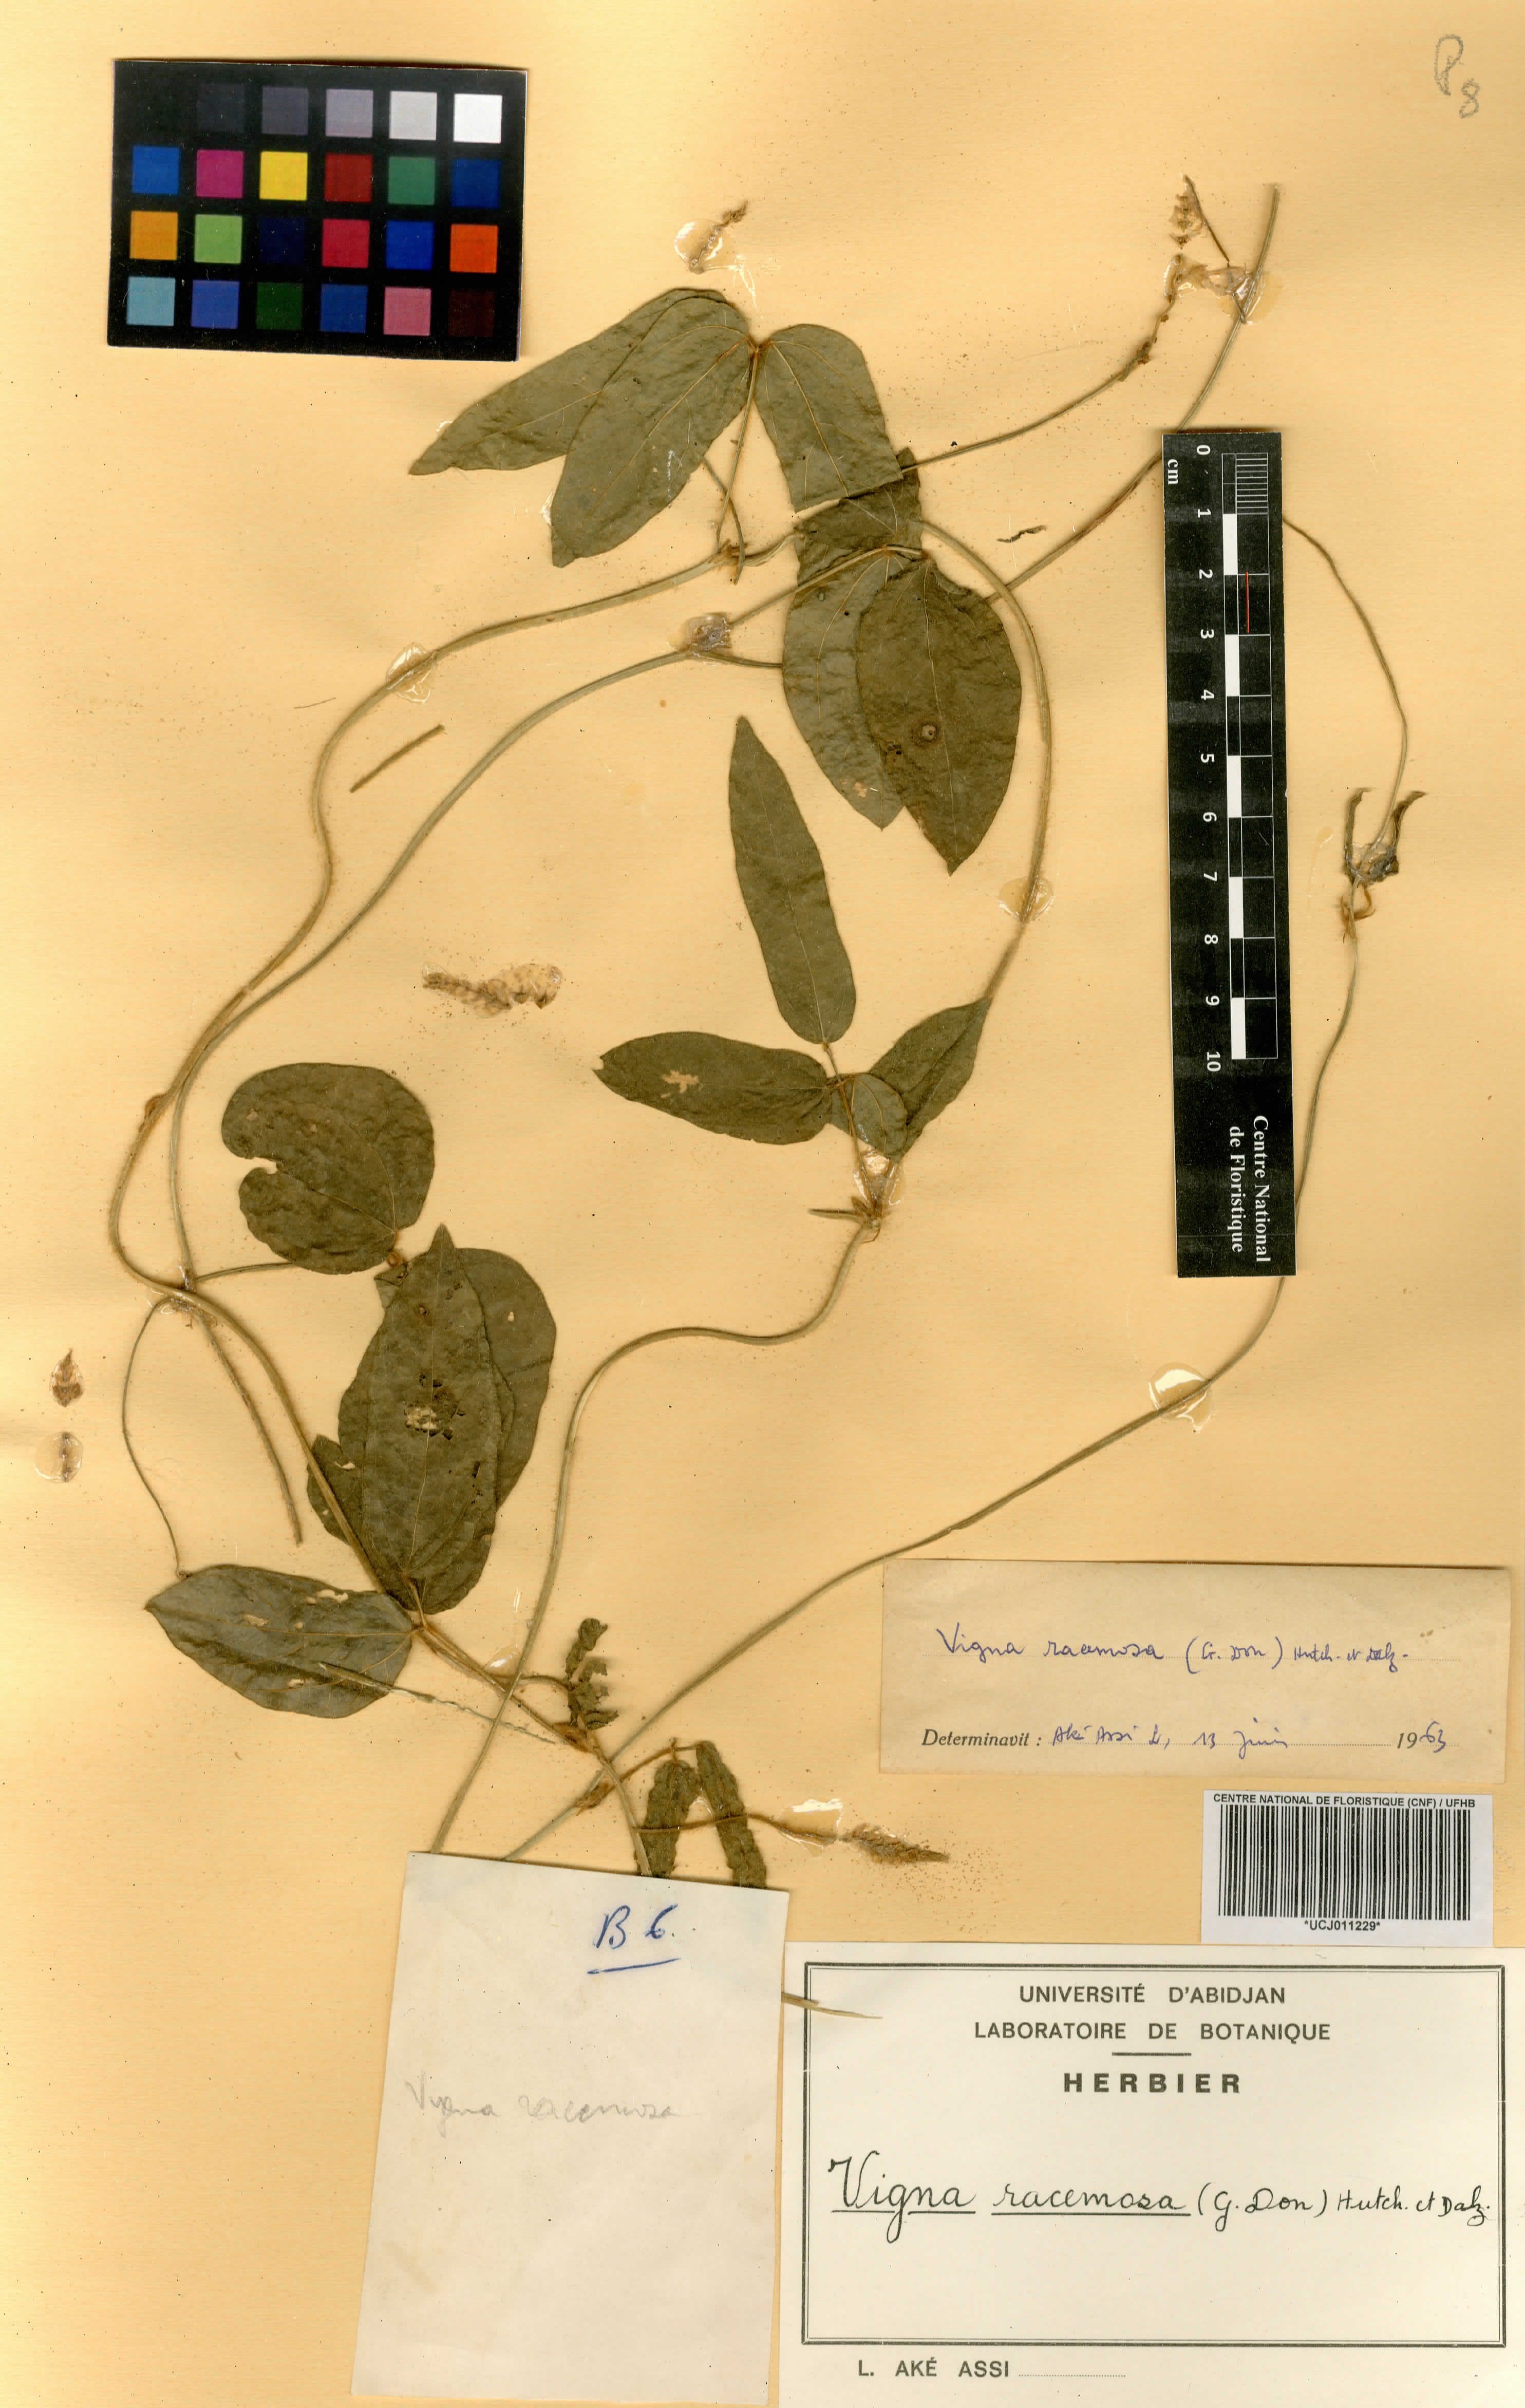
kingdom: Plantae
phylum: Tracheophyta
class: Magnoliopsida
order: Fabales
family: Fabaceae
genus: Vigna
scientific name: Vigna racemosa
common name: Beans not eaten
